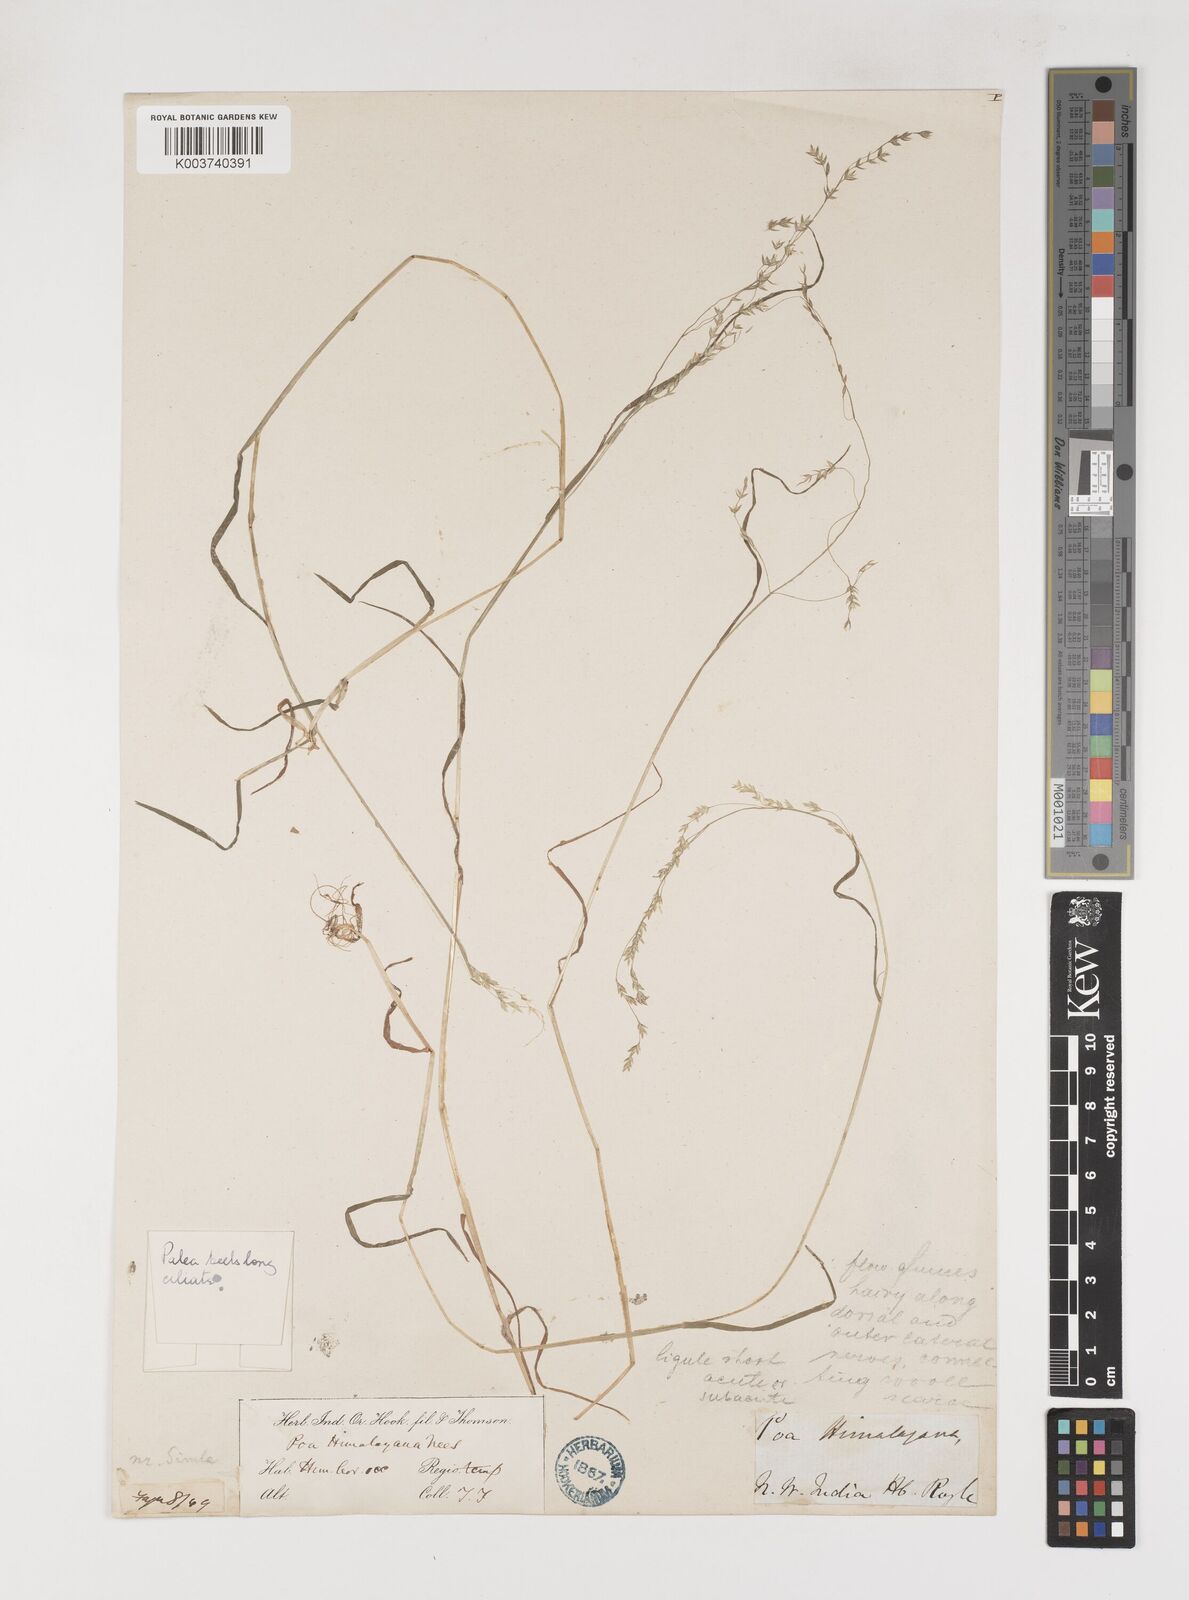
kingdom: Plantae
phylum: Tracheophyta
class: Liliopsida
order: Poales
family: Poaceae
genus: Poa
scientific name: Poa stewartiana
